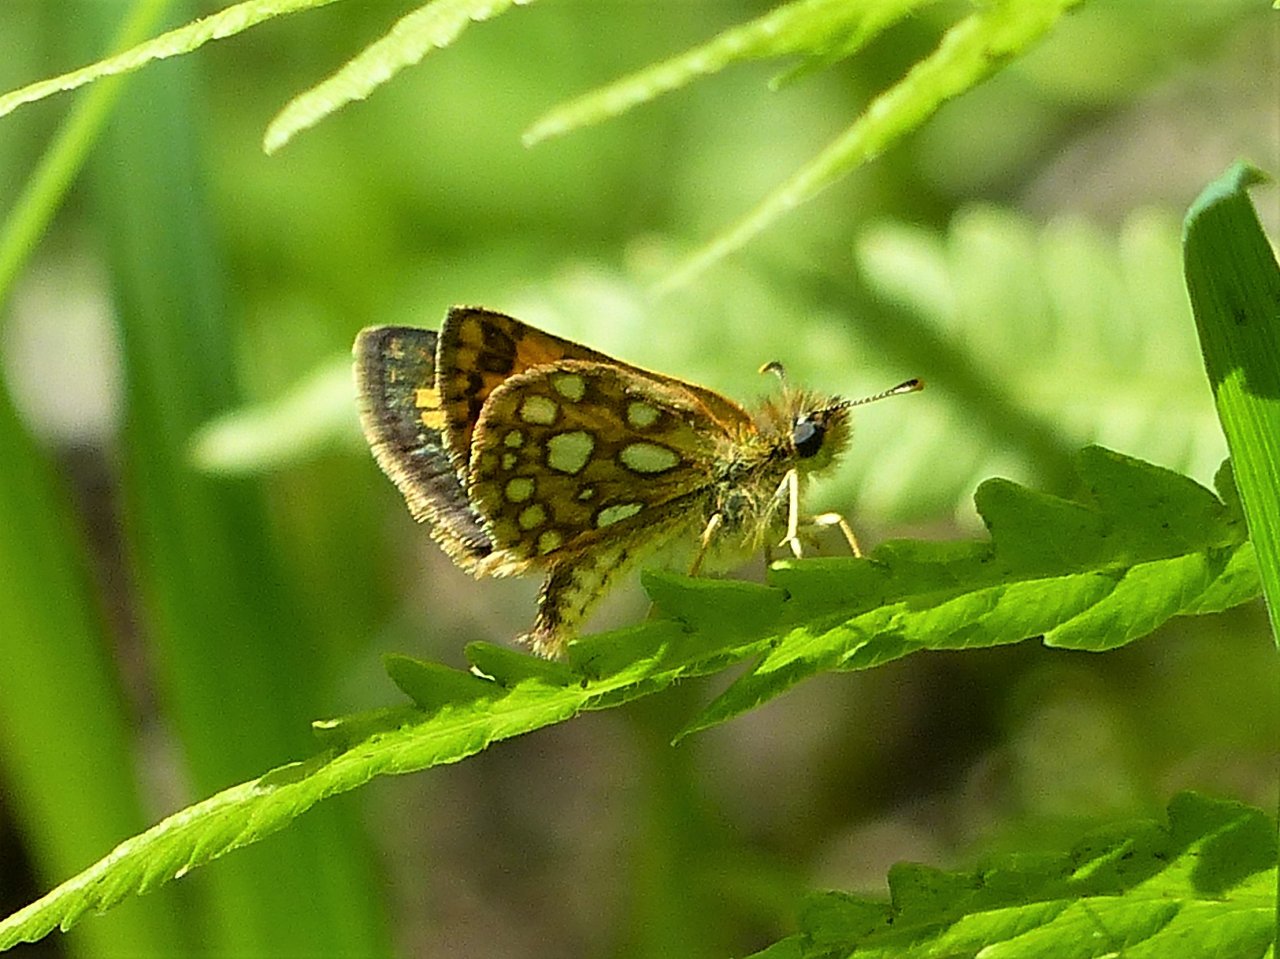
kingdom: Animalia
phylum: Arthropoda
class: Insecta
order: Lepidoptera
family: Hesperiidae
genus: Carterocephalus
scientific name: Carterocephalus palaemon
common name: Chequered Skipper
